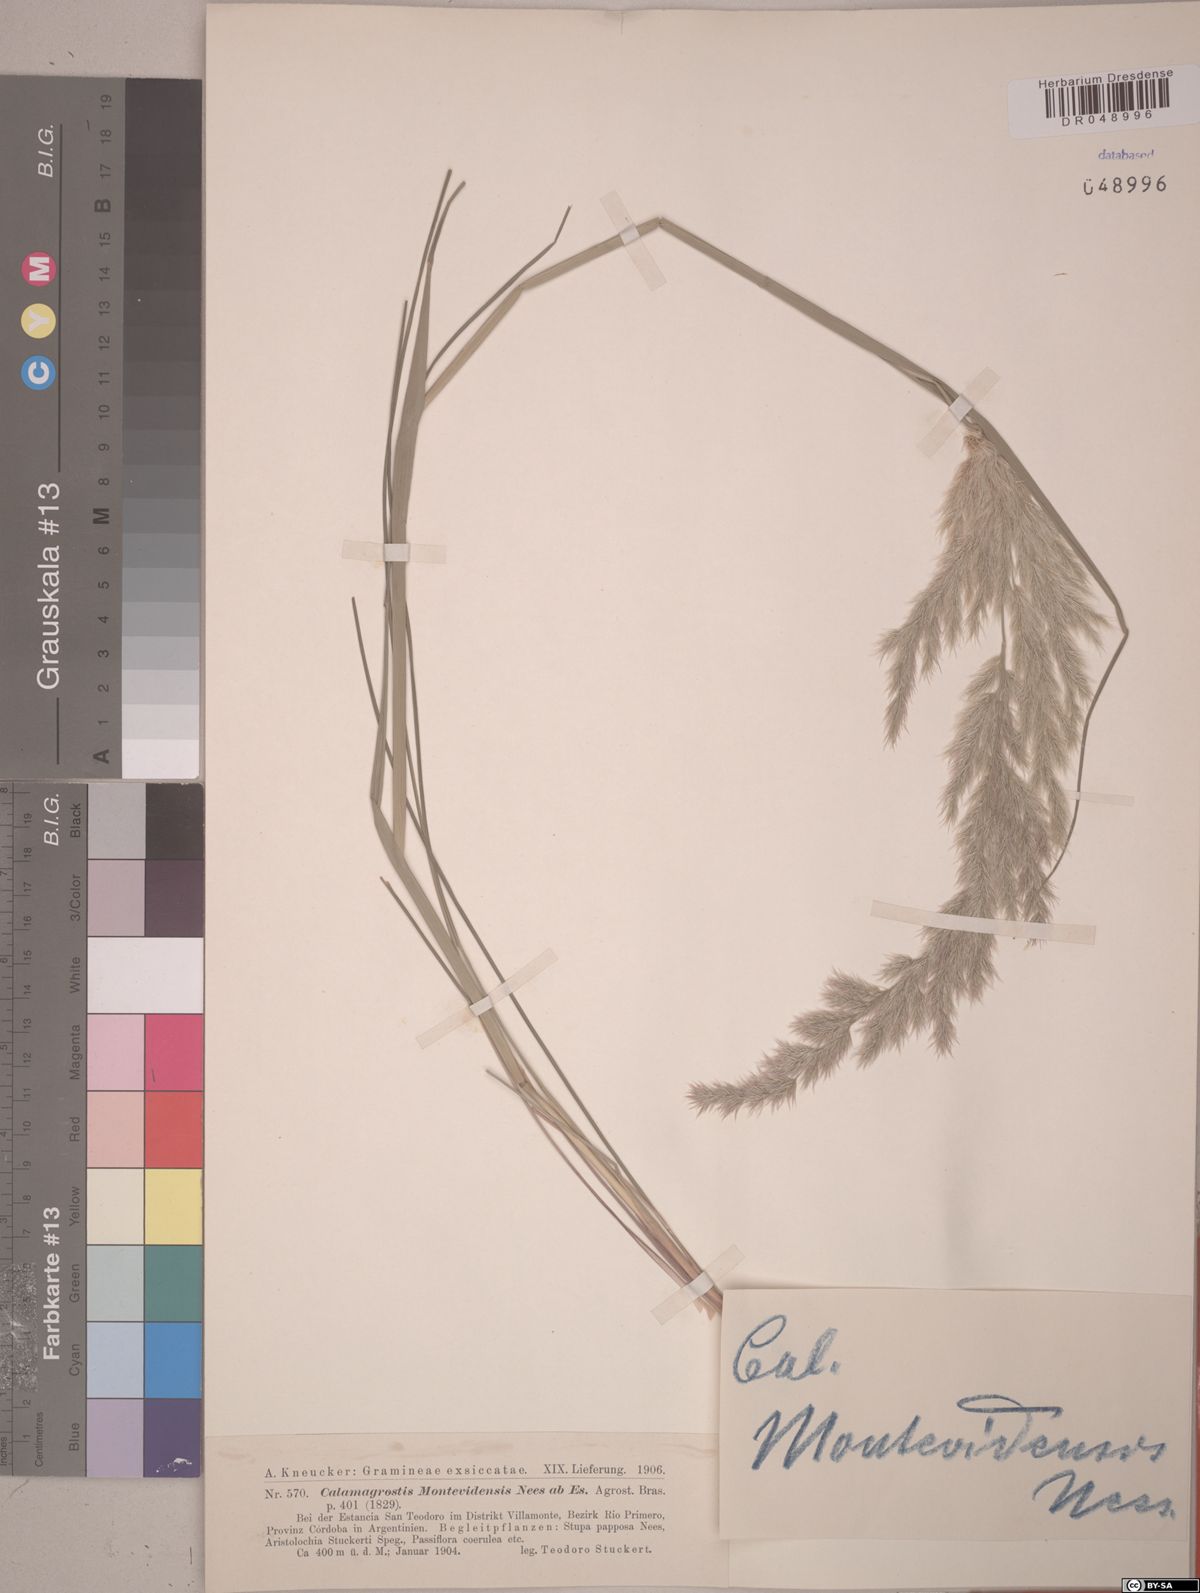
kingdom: Plantae
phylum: Tracheophyta
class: Liliopsida
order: Poales
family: Poaceae
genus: Cinnagrostis
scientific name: Cinnagrostis viridiflavescens
